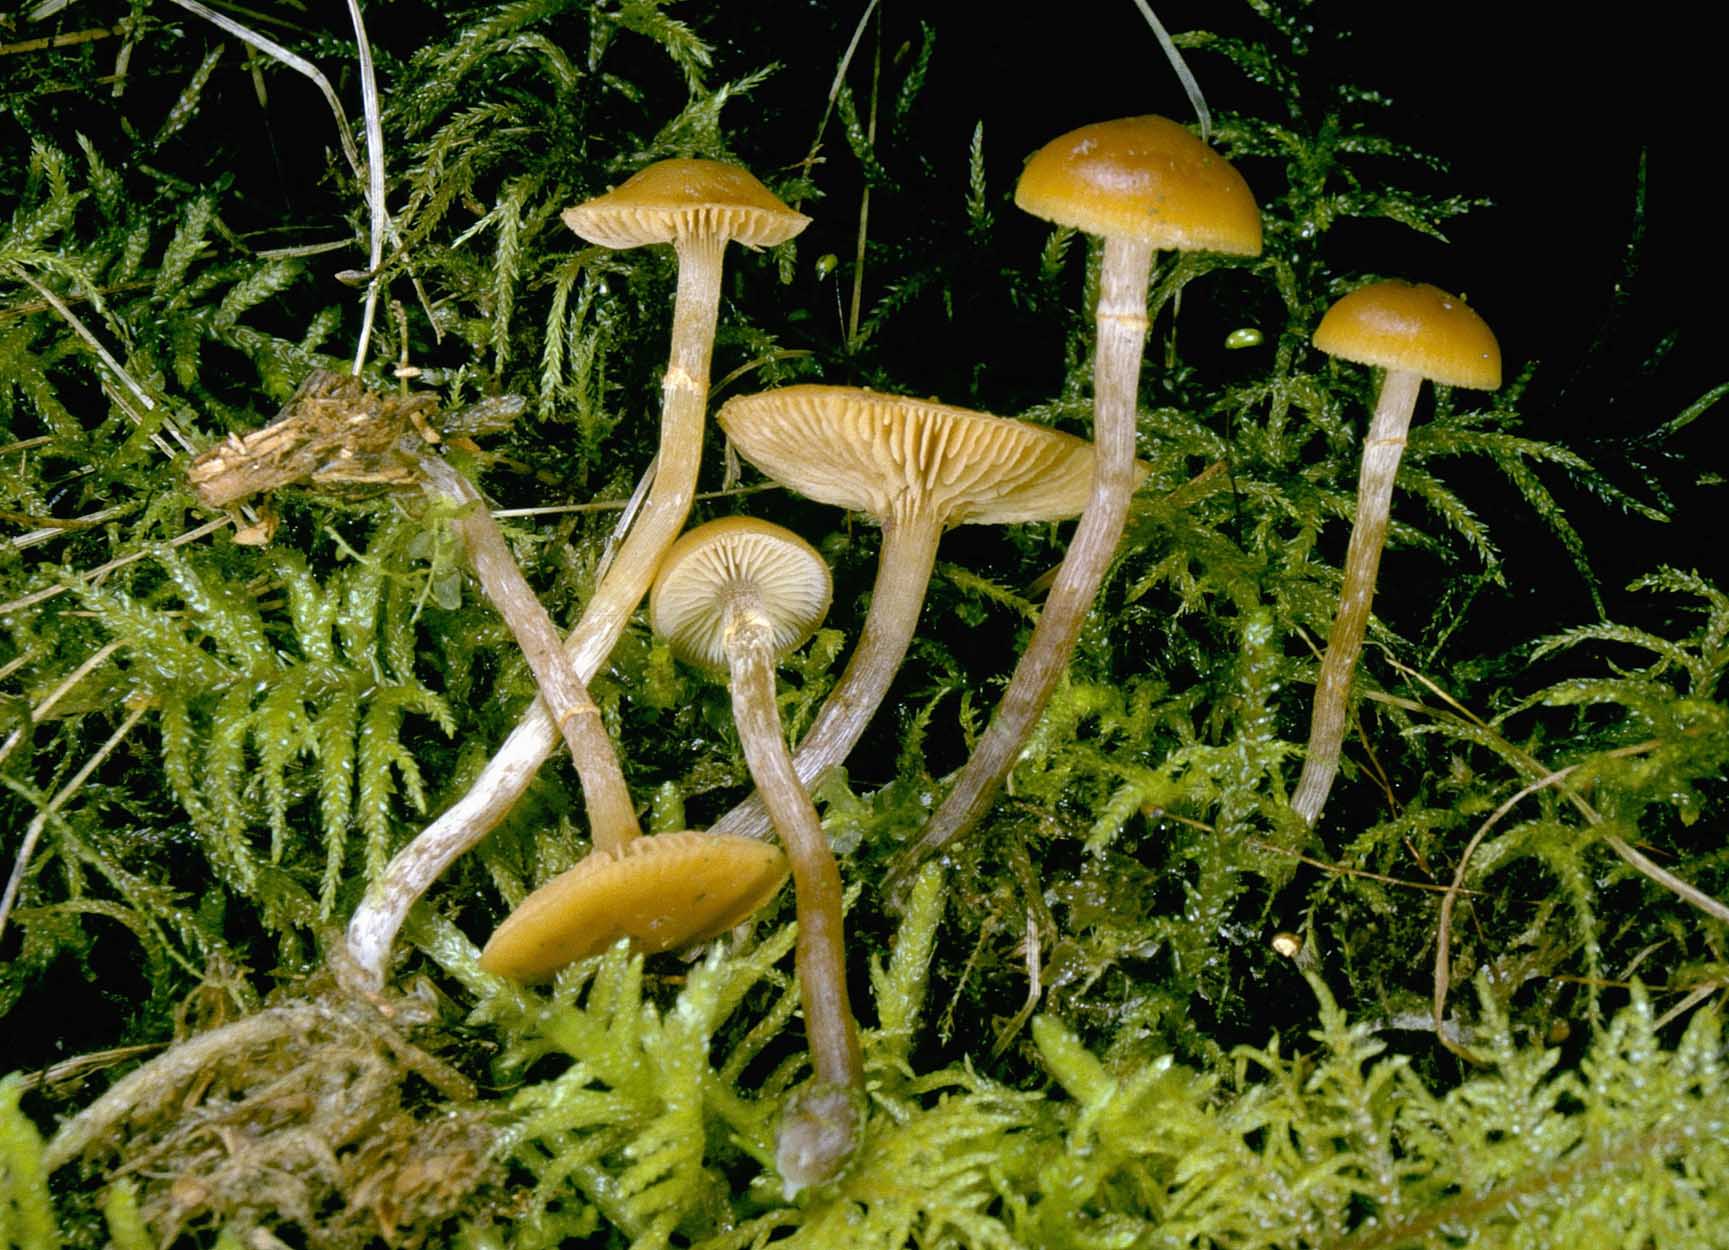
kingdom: Fungi
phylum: Basidiomycota
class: Agaricomycetes
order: Agaricales
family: Hymenogastraceae
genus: Galerina
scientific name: Galerina paludosa
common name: mose-hjelmhat
